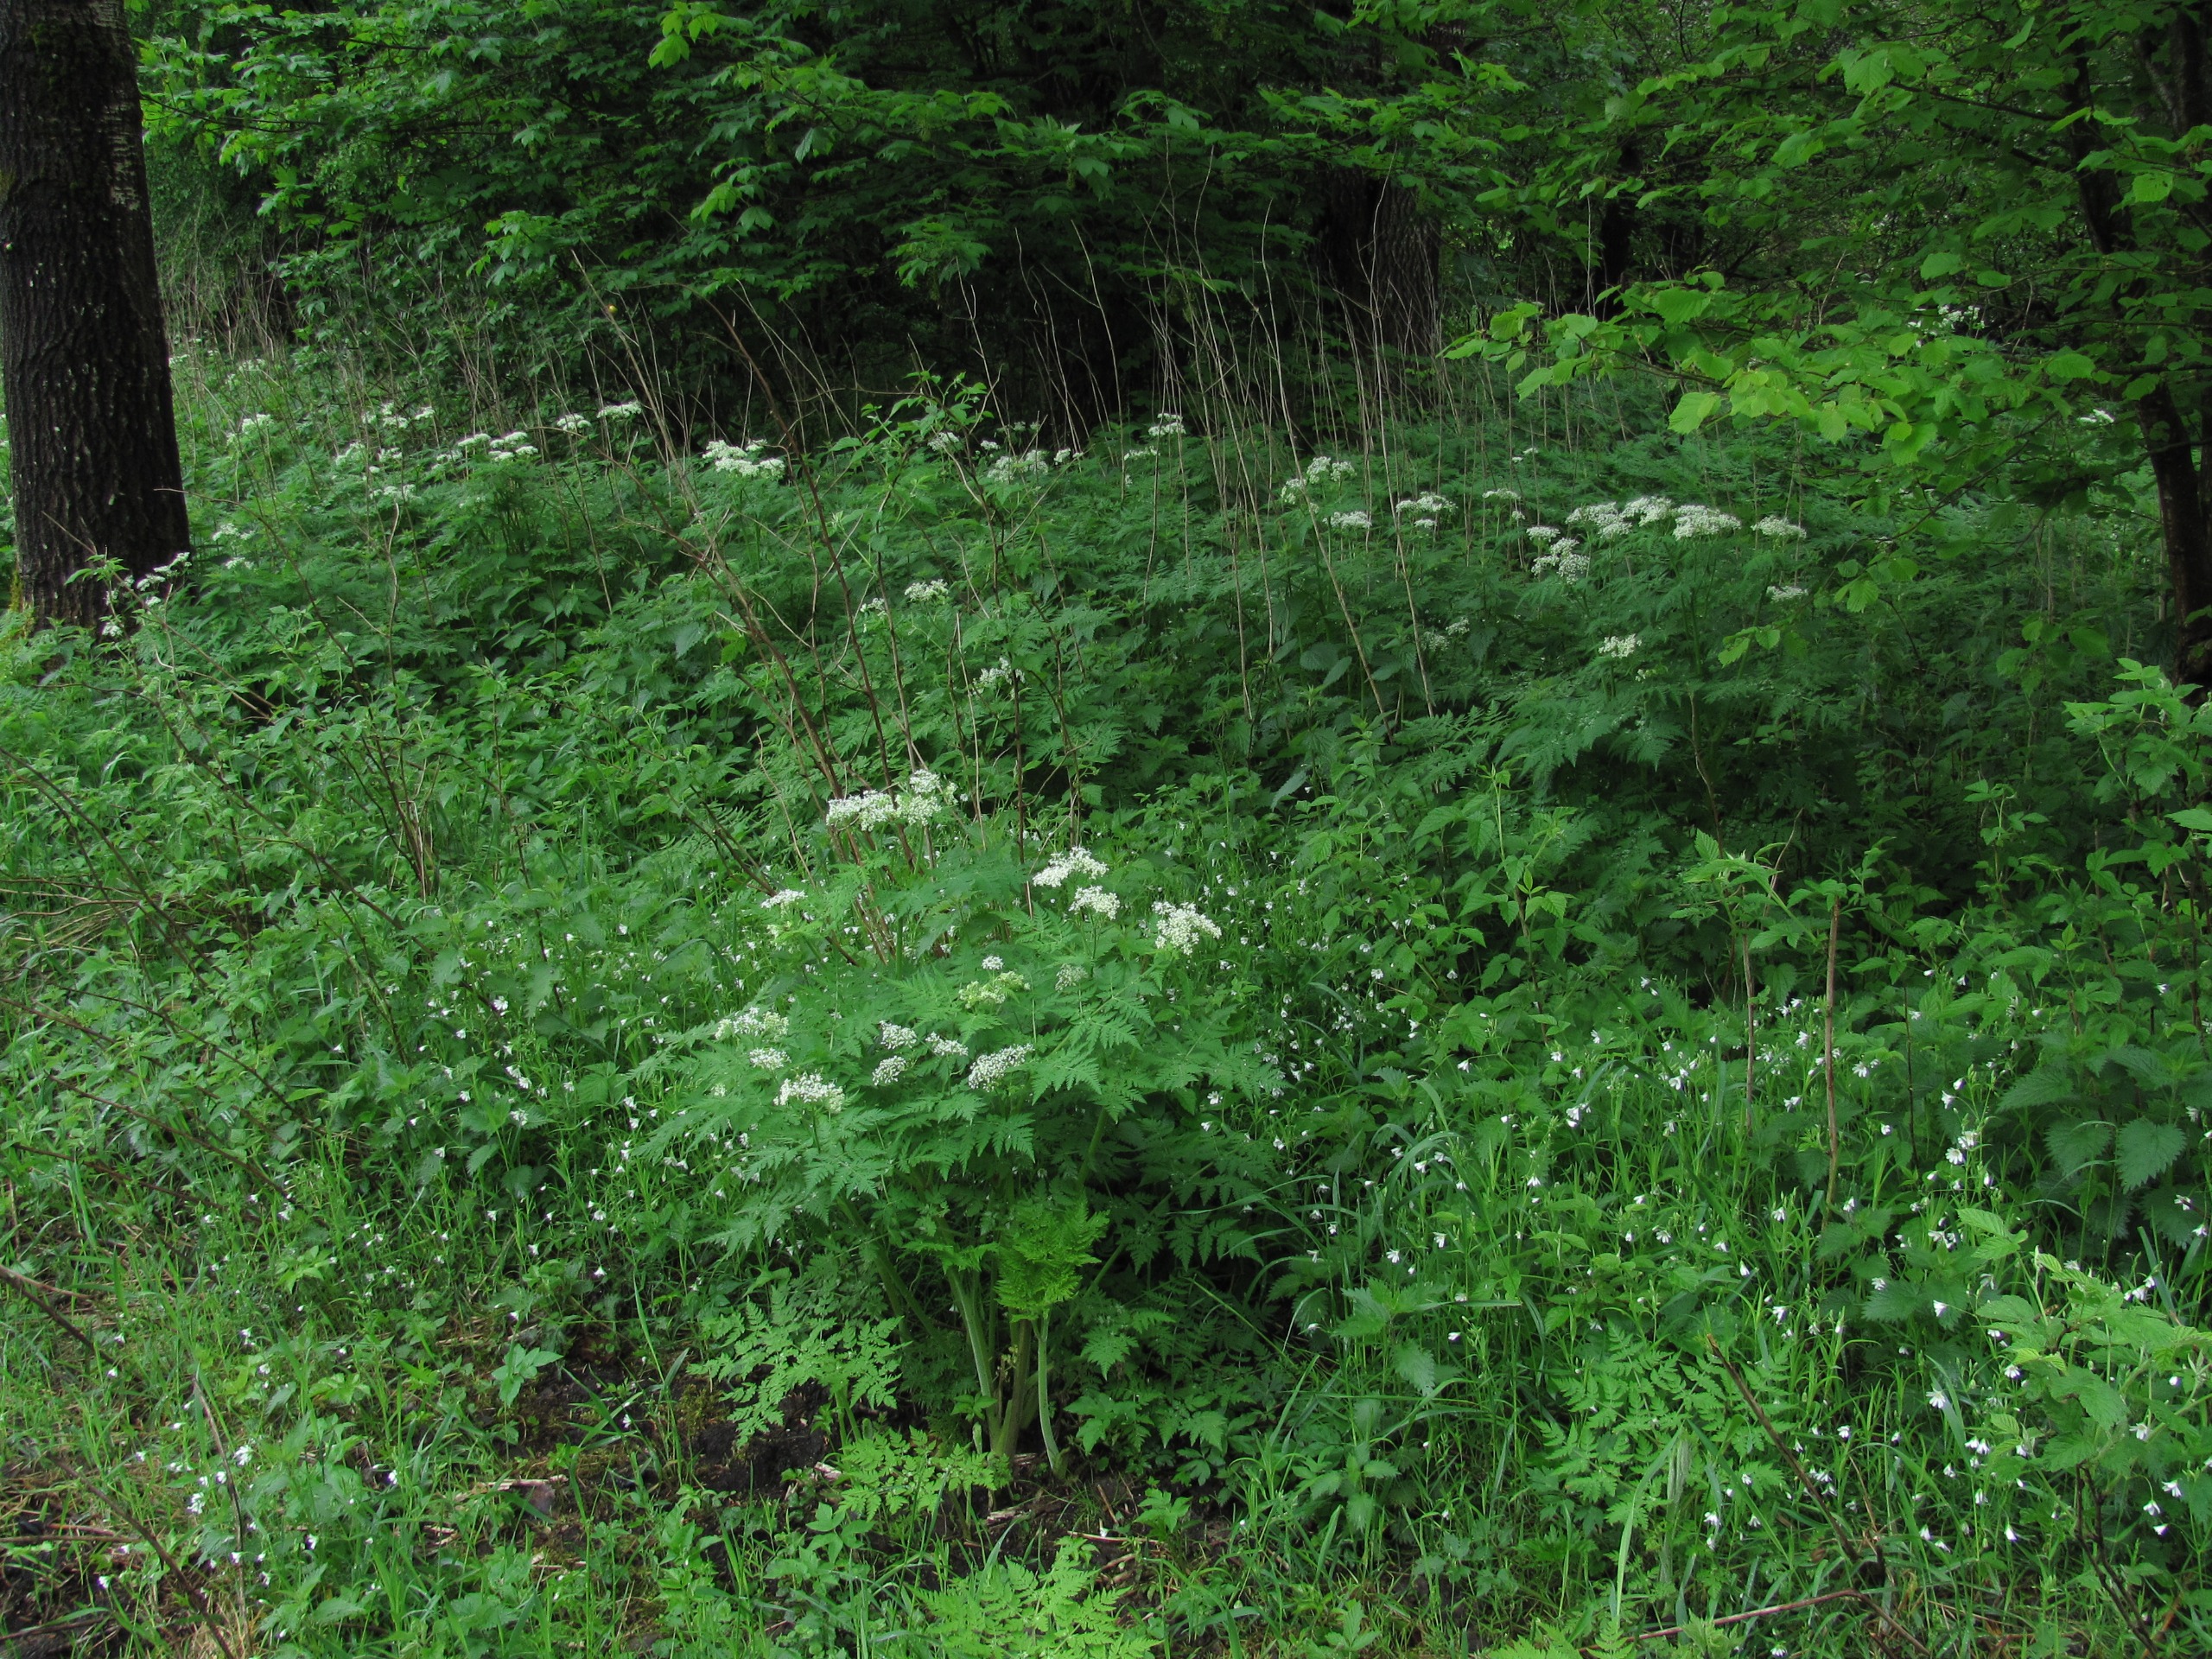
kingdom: Plantae
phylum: Tracheophyta
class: Magnoliopsida
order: Apiales
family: Apiaceae
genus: Myrrhis
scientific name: Myrrhis odorata
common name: Sødskærm
